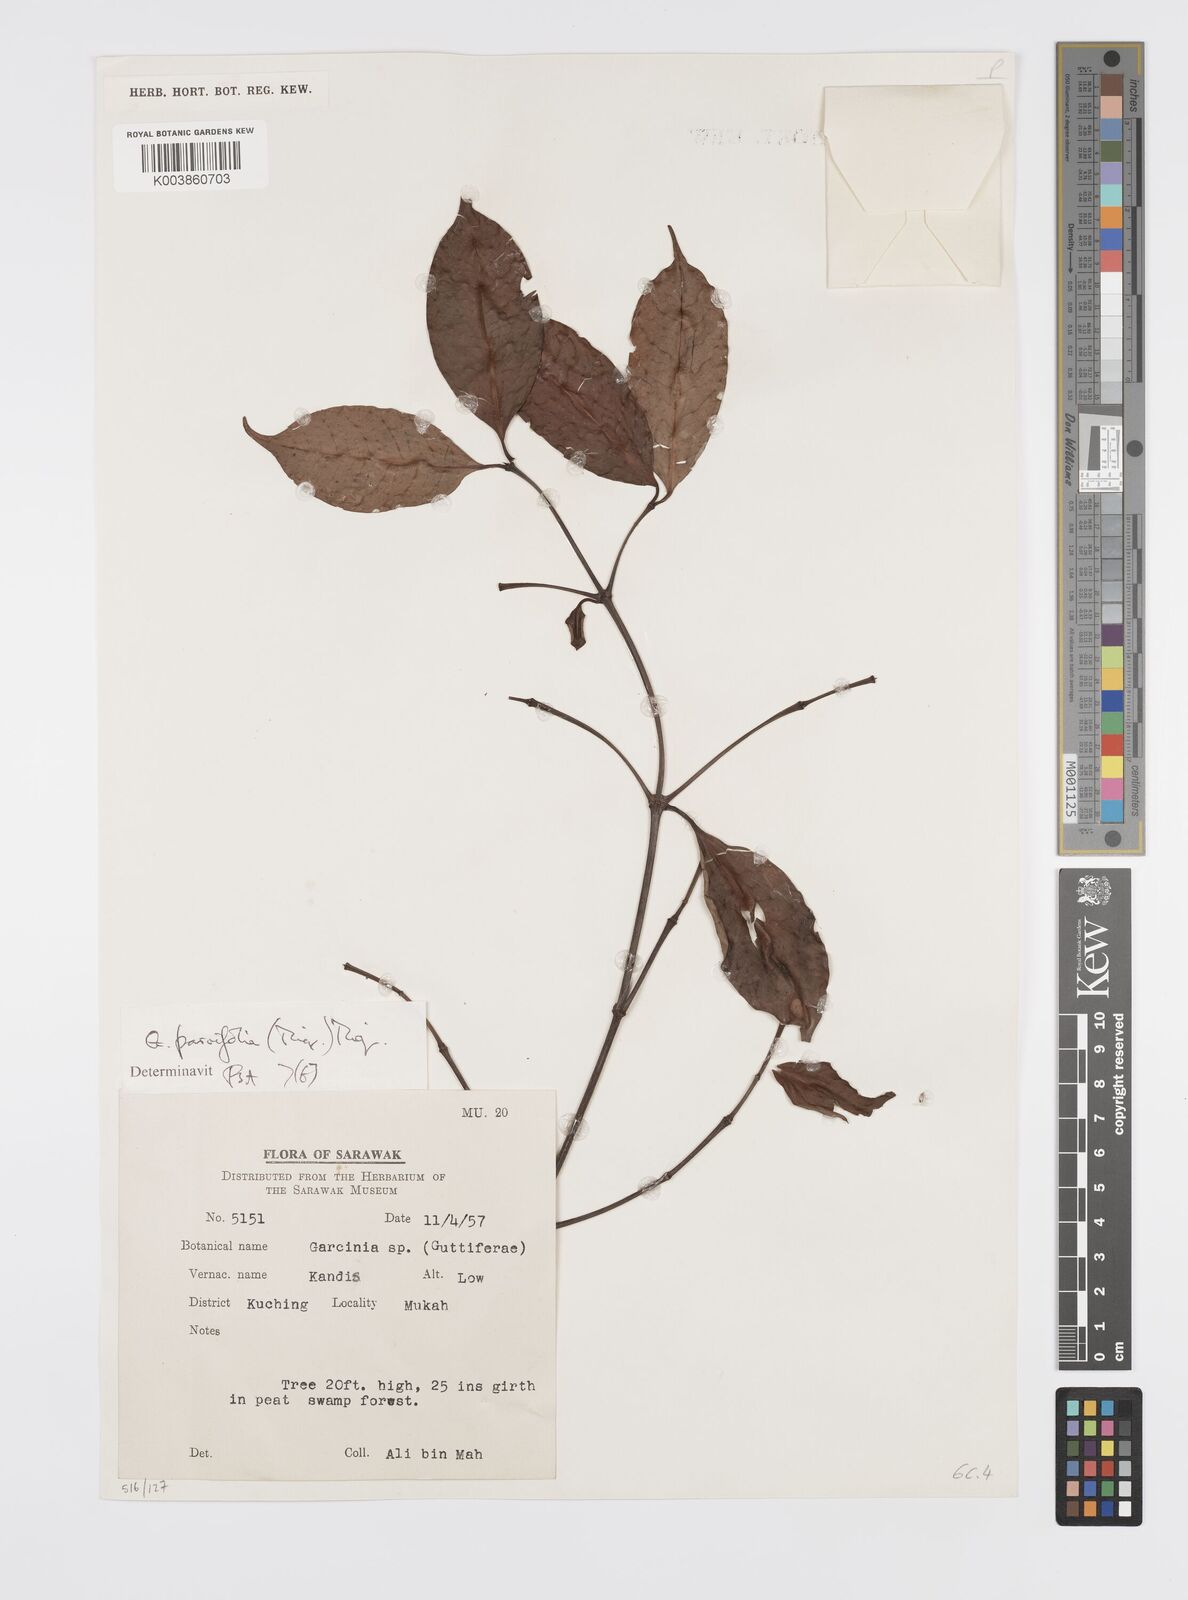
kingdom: Plantae
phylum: Tracheophyta
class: Magnoliopsida
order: Malpighiales
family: Clusiaceae
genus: Garcinia
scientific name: Garcinia parvifolia
